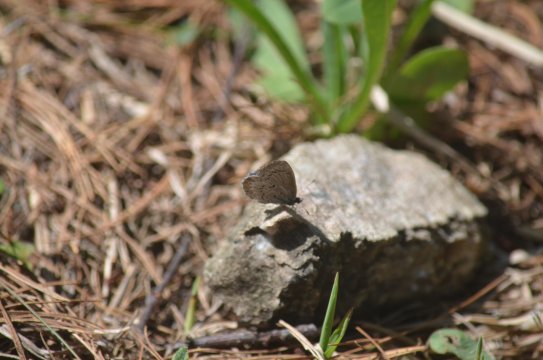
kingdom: Animalia
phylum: Arthropoda
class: Insecta
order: Lepidoptera
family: Lycaenidae
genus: Celastrina
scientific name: Celastrina lucia
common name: Northern Spring Azure
